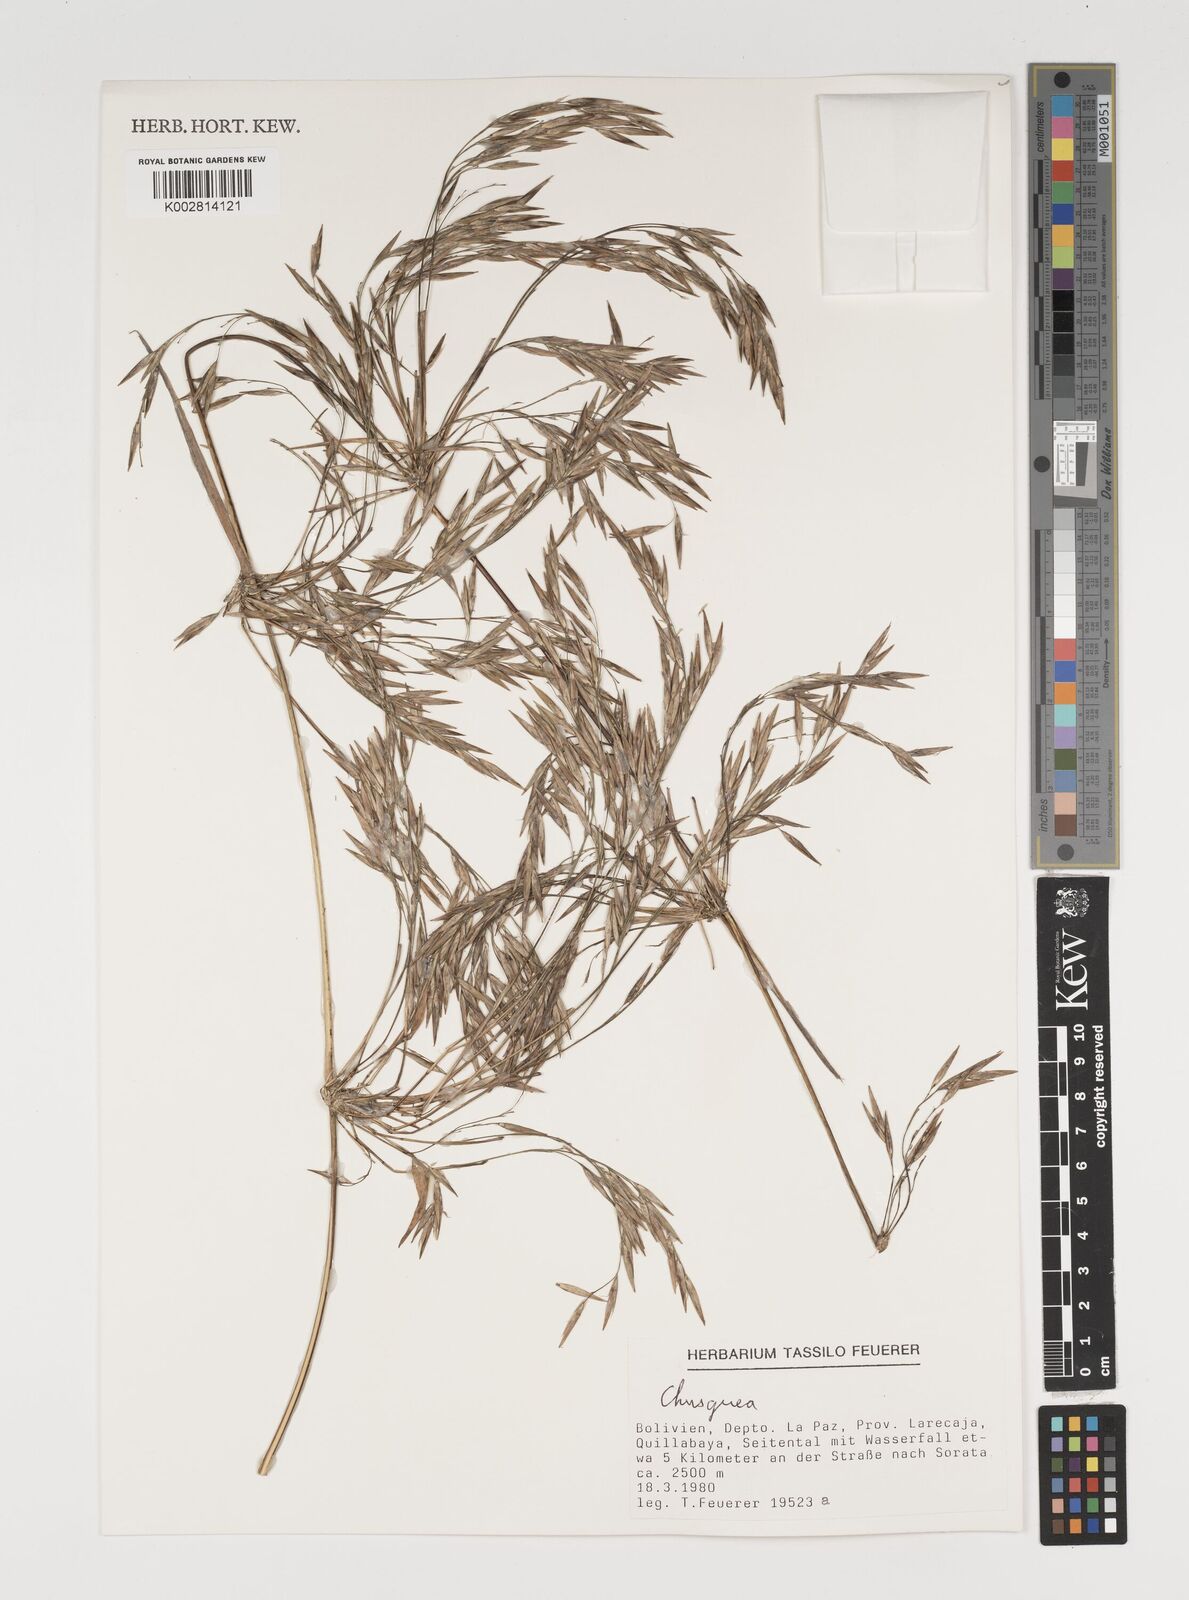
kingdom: Plantae
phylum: Tracheophyta
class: Liliopsida
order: Poales
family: Poaceae
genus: Chusquea
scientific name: Chusquea
